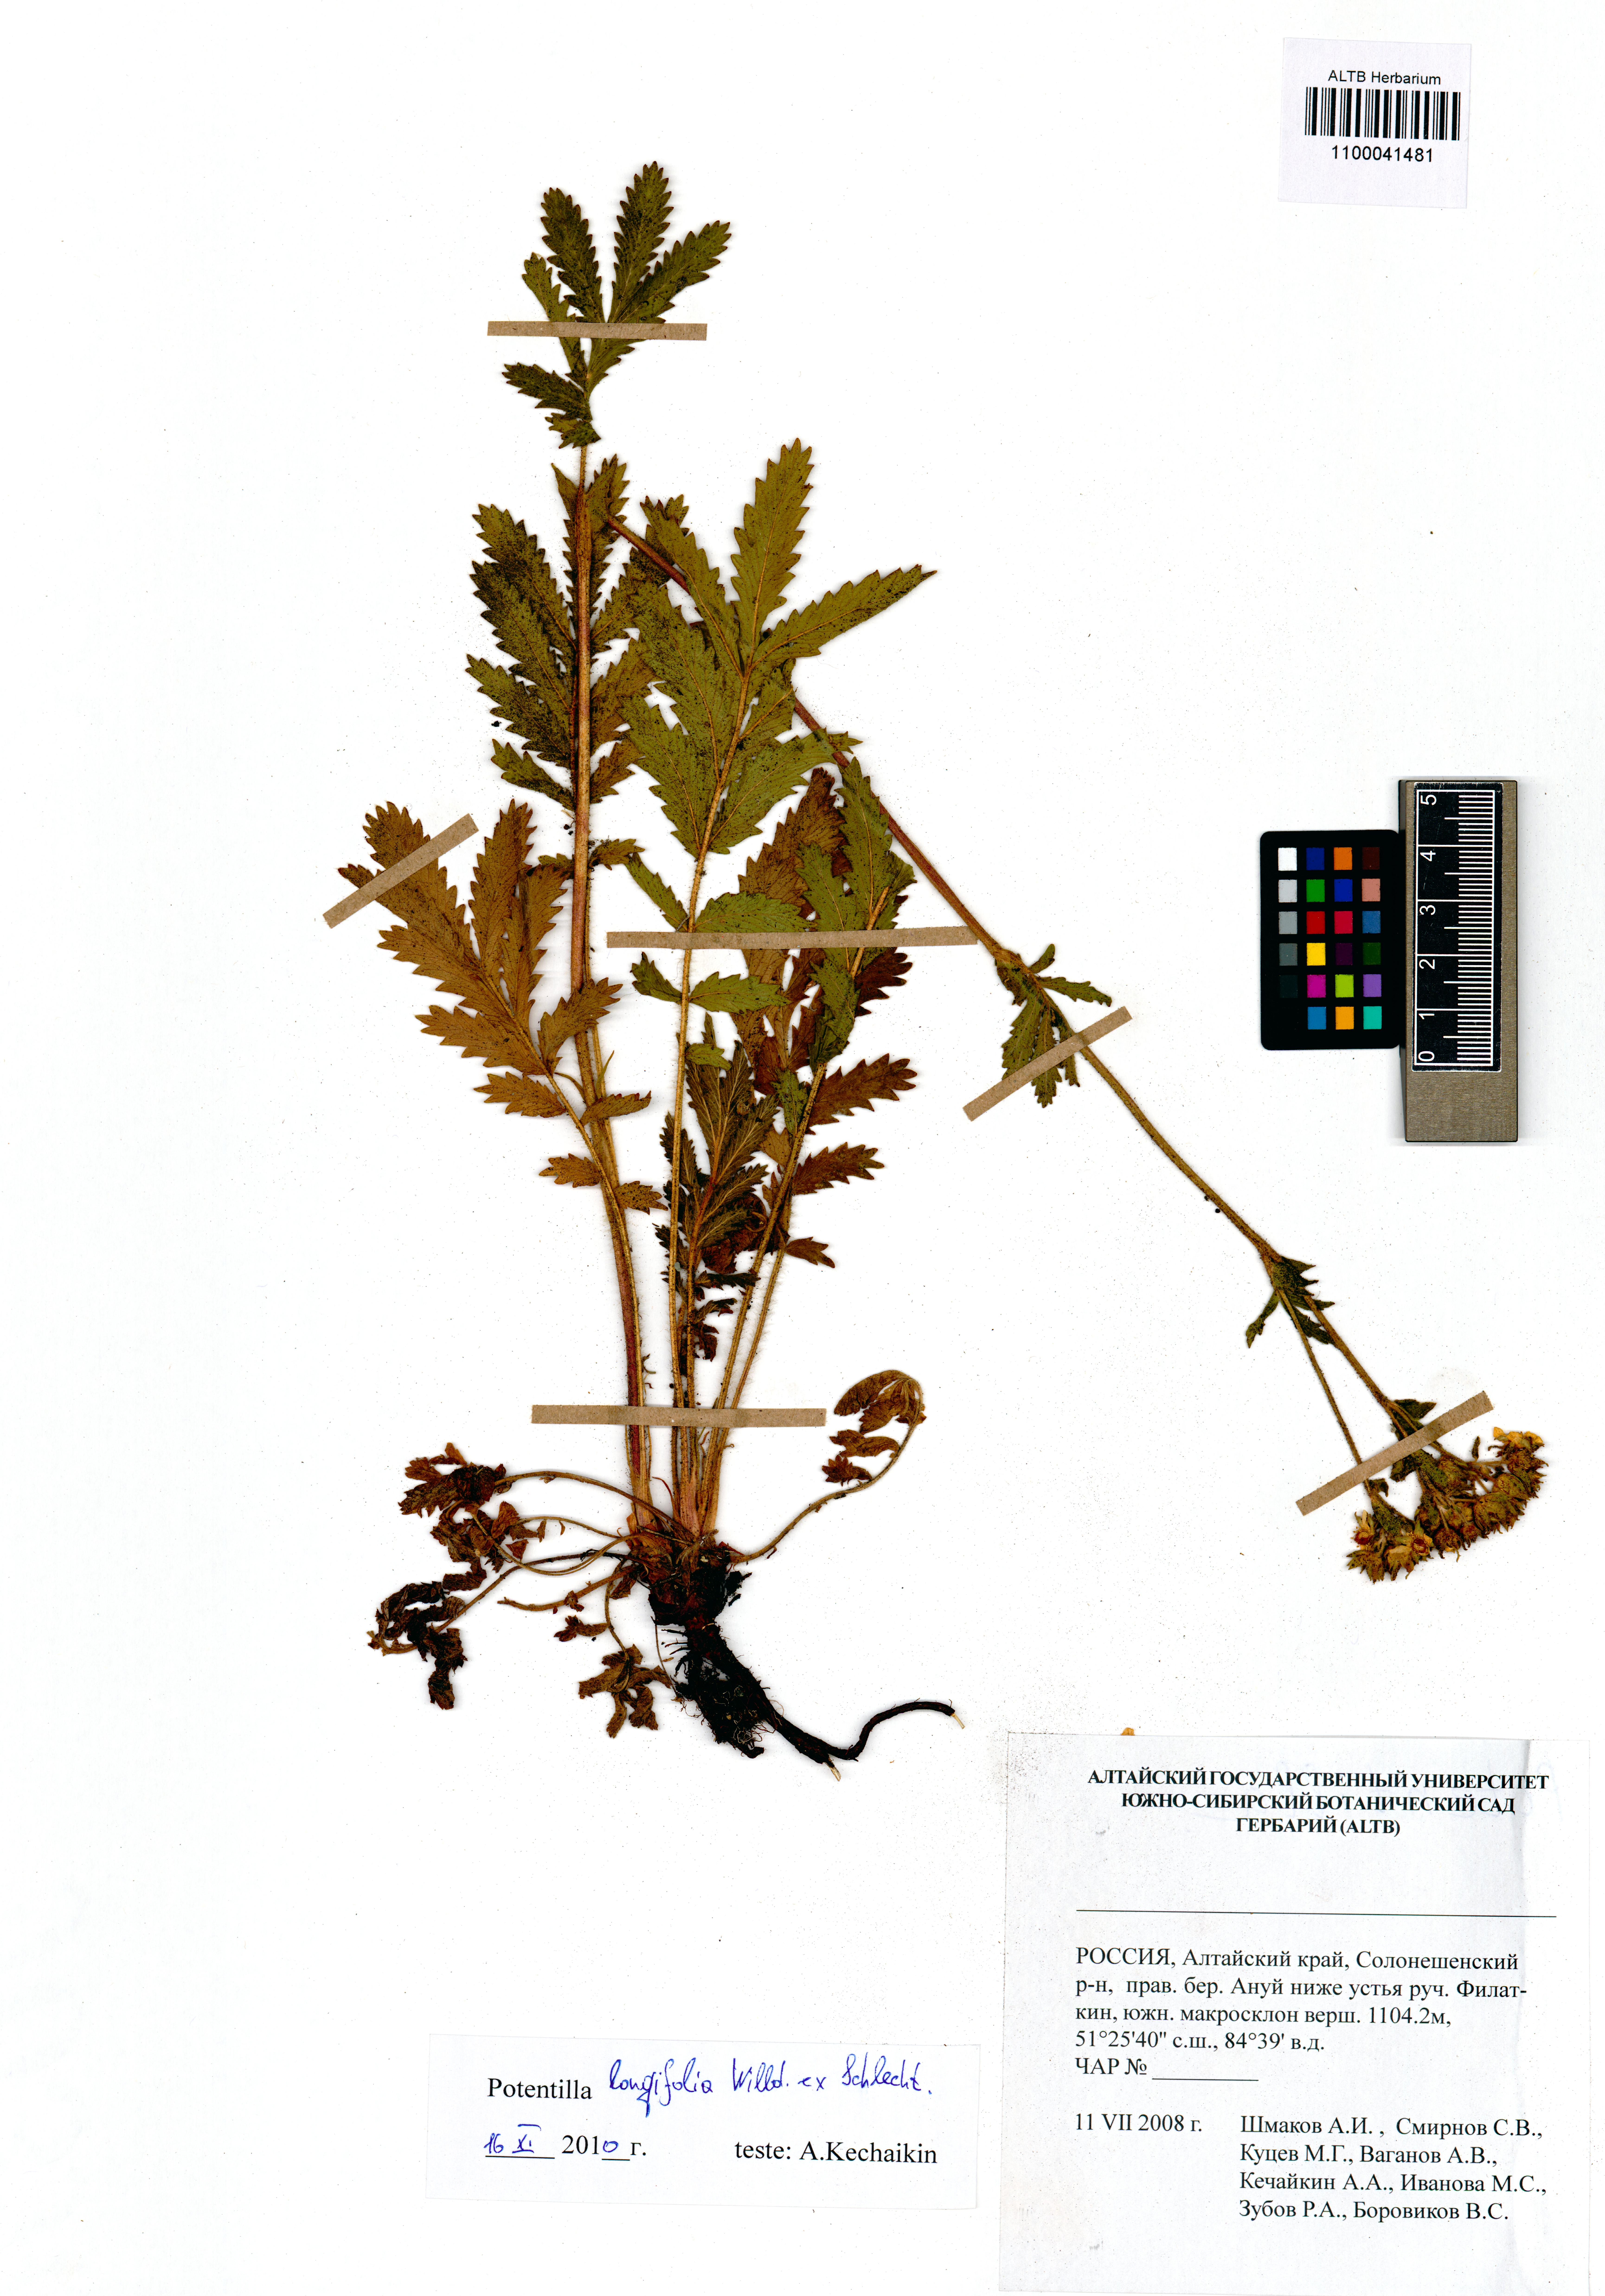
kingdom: Plantae
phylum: Tracheophyta
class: Magnoliopsida
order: Rosales
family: Rosaceae
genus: Potentilla
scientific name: Potentilla longifolia
